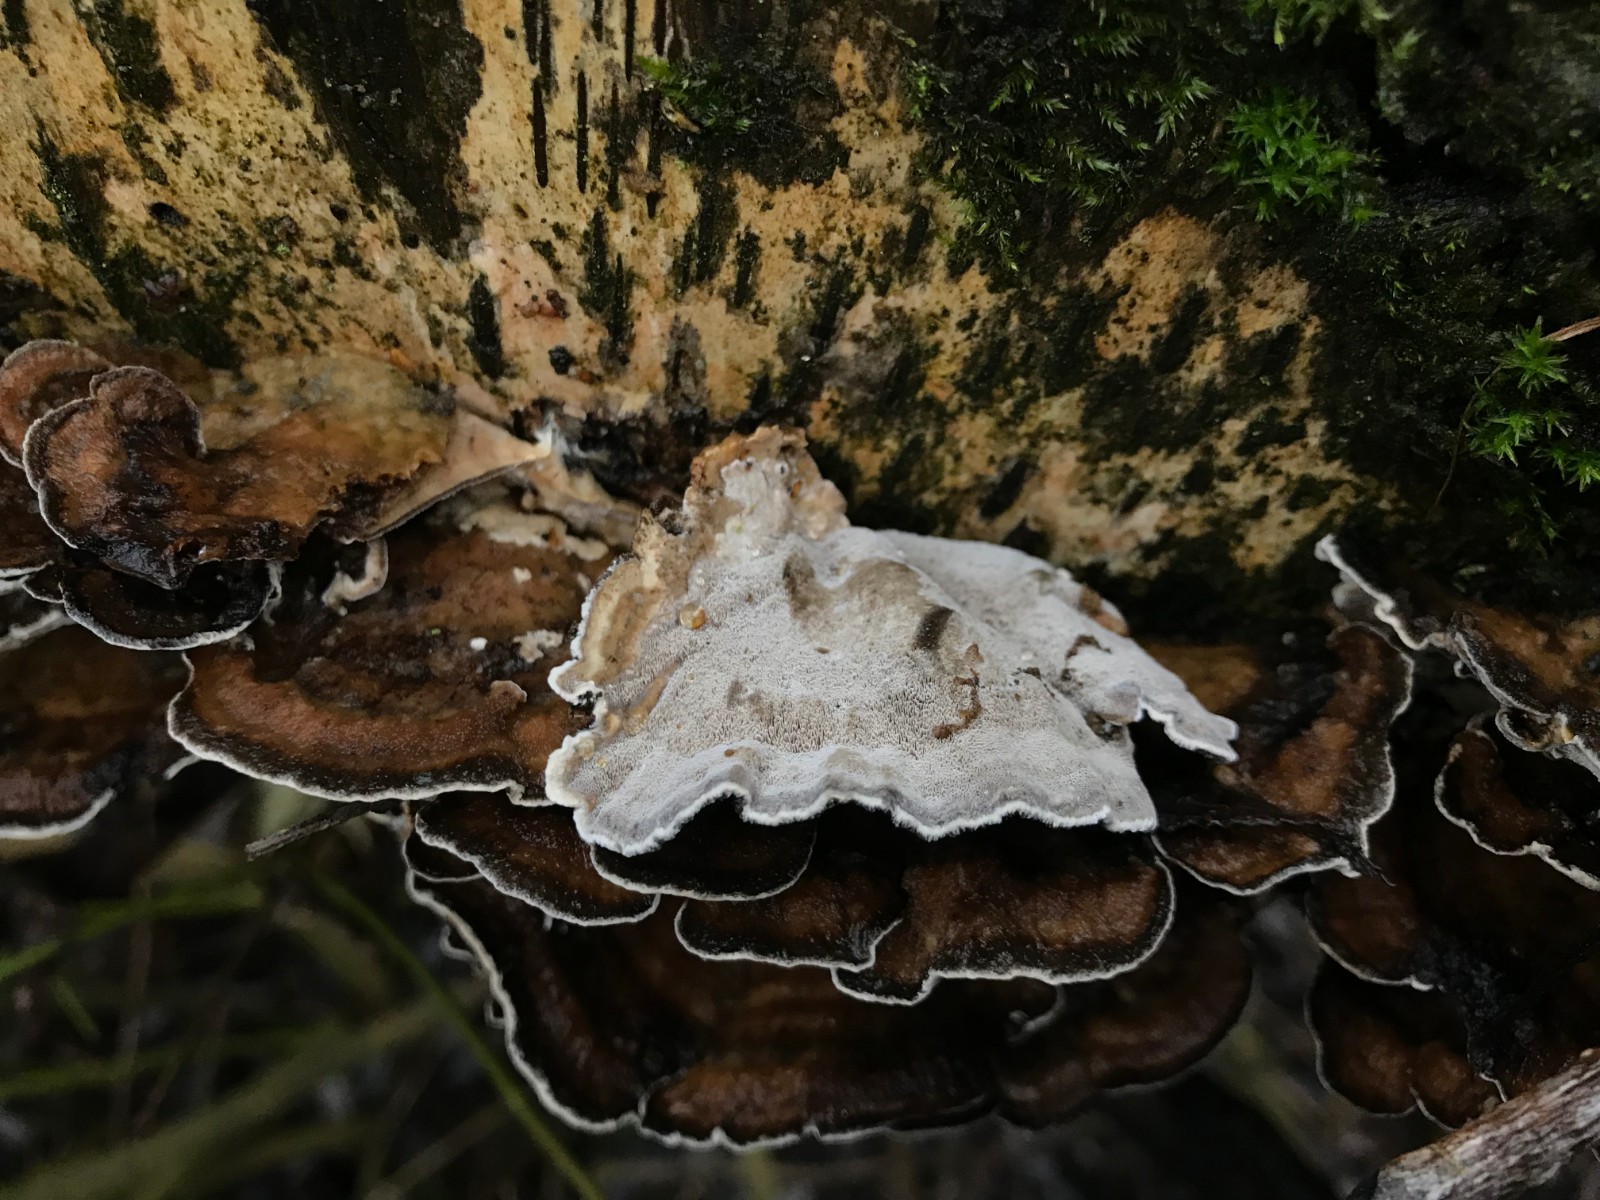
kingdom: Fungi
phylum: Basidiomycota
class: Agaricomycetes
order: Polyporales
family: Phanerochaetaceae
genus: Bjerkandera
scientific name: Bjerkandera adusta
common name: sveden sodporesvamp
